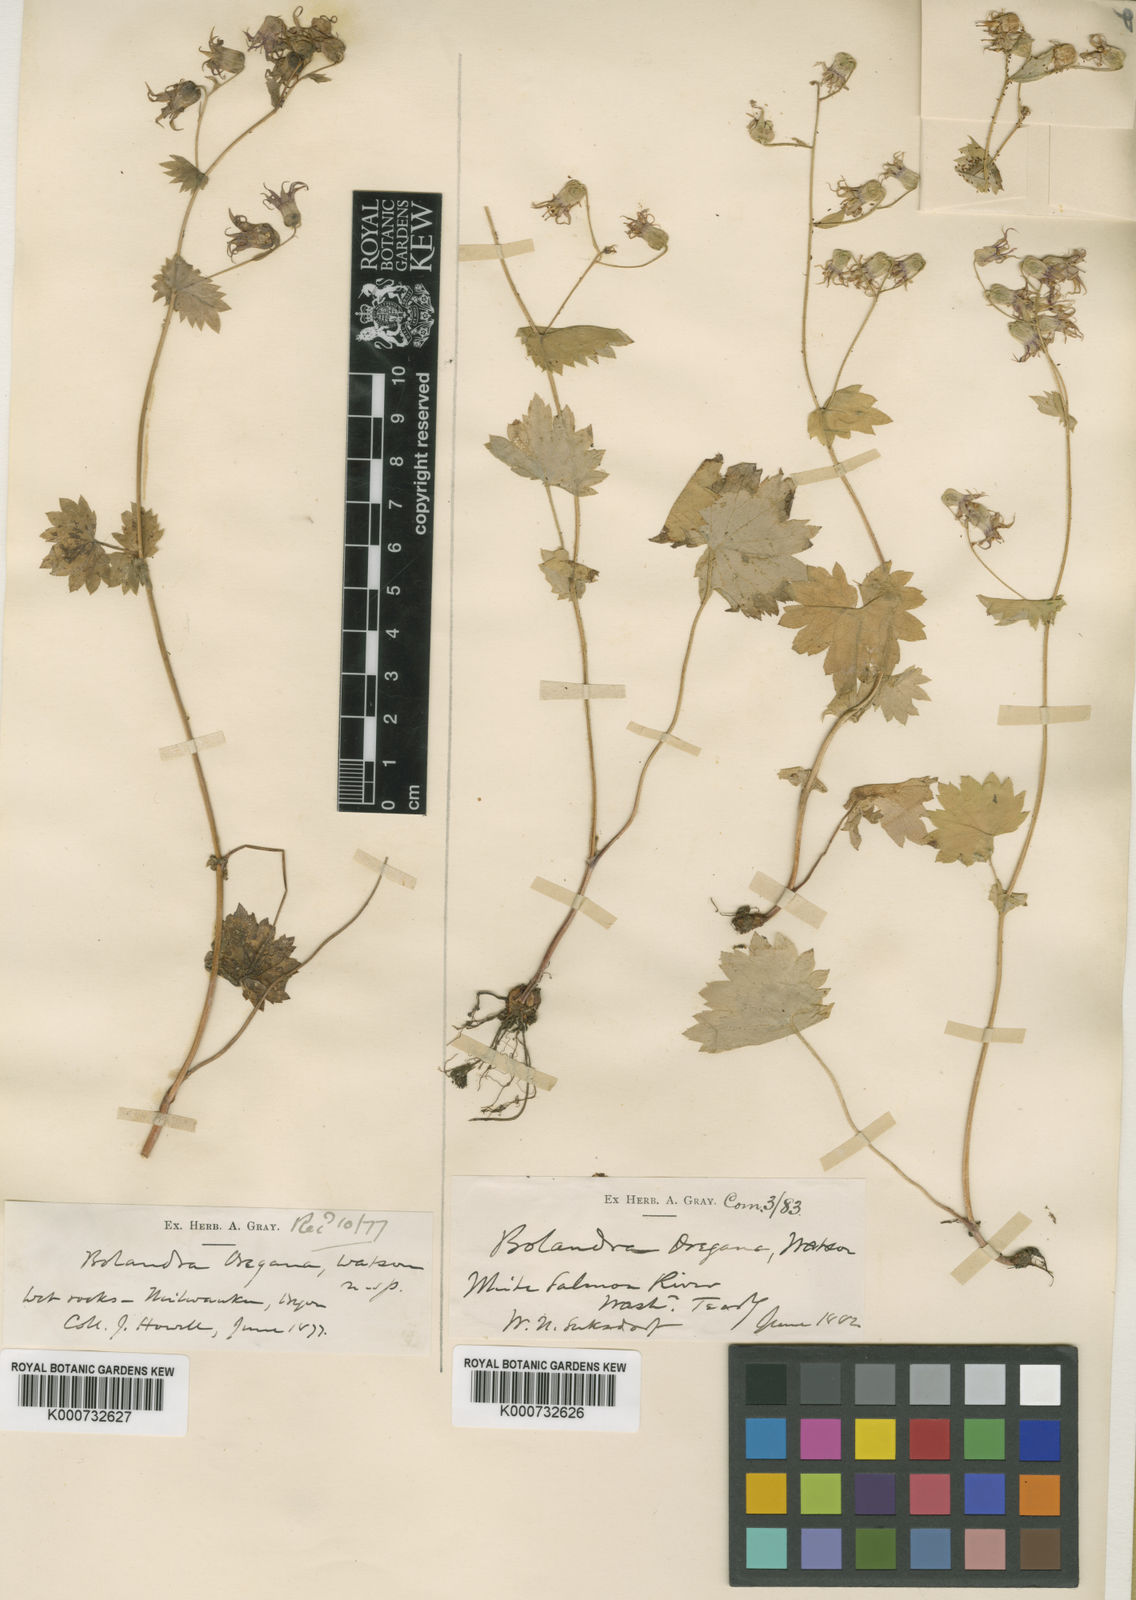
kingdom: Plantae
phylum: Tracheophyta
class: Magnoliopsida
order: Saxifragales
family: Saxifragaceae
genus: Bolandra
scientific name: Bolandra oregana
